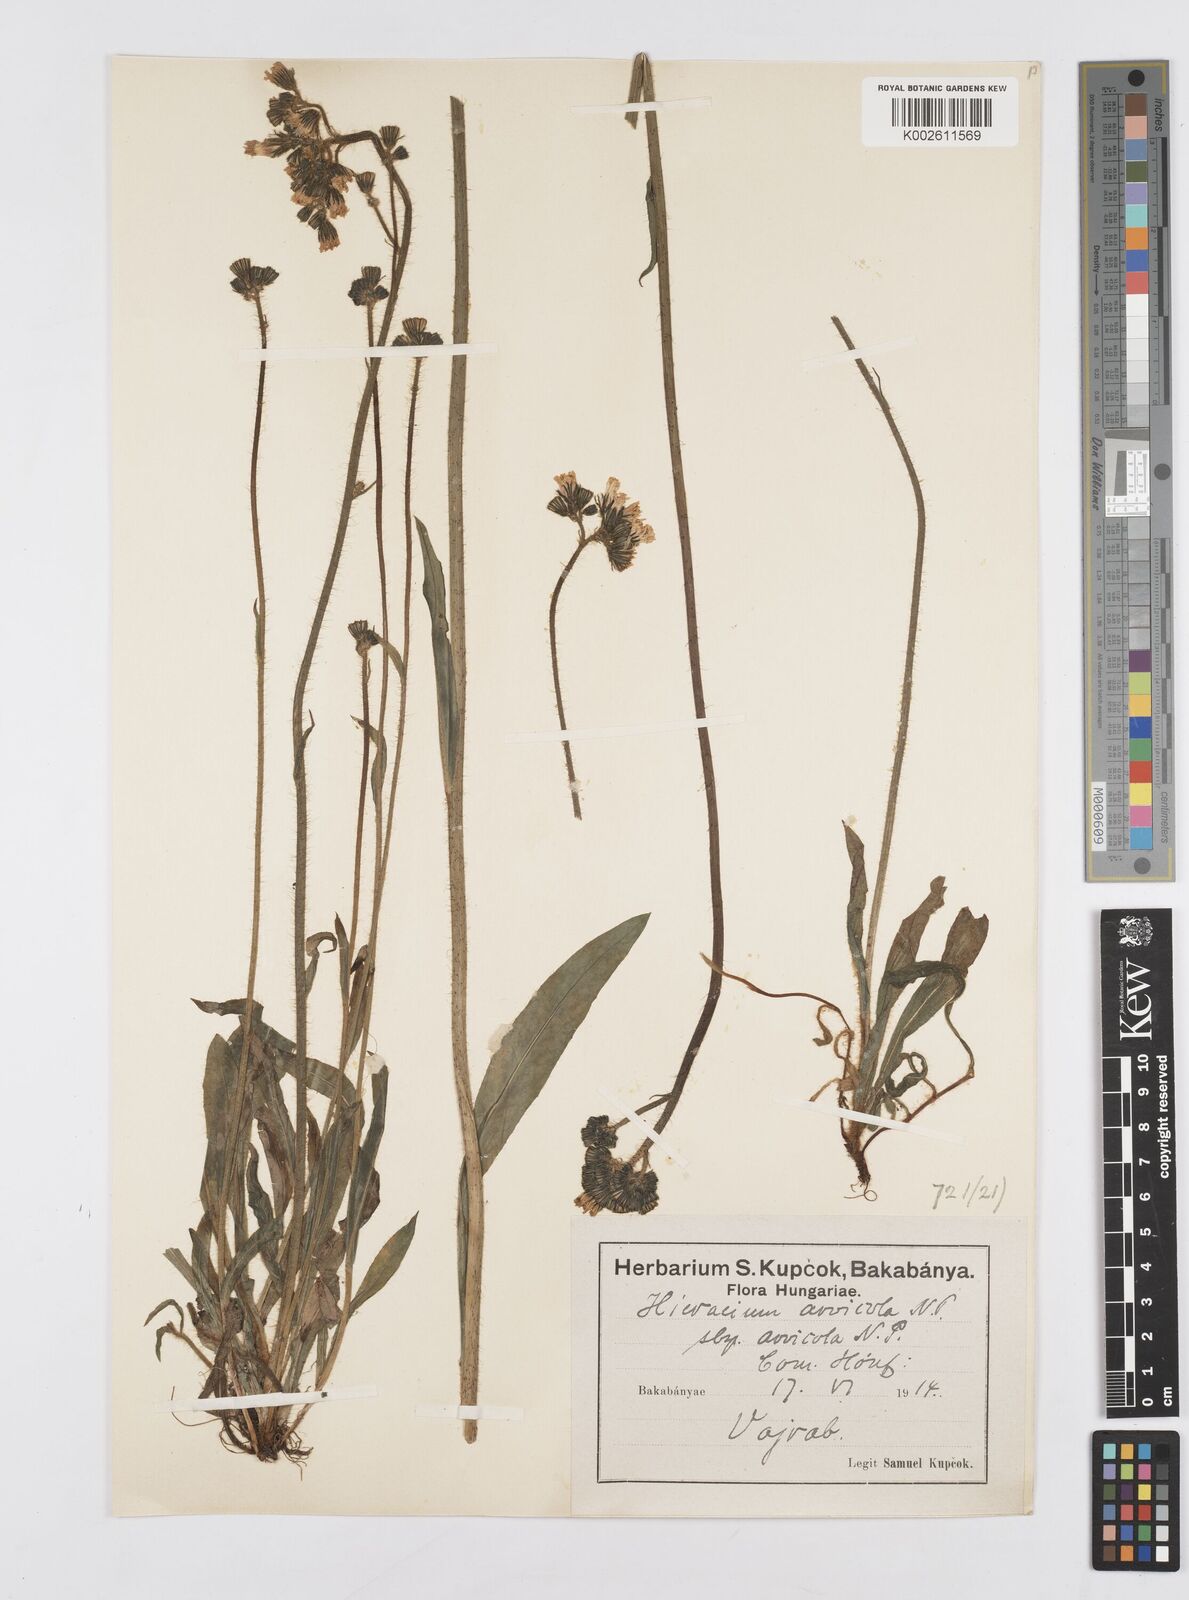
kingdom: Plantae
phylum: Tracheophyta
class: Magnoliopsida
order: Asterales
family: Asteraceae
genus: Pilosella
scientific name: Pilosella erythrochrista
